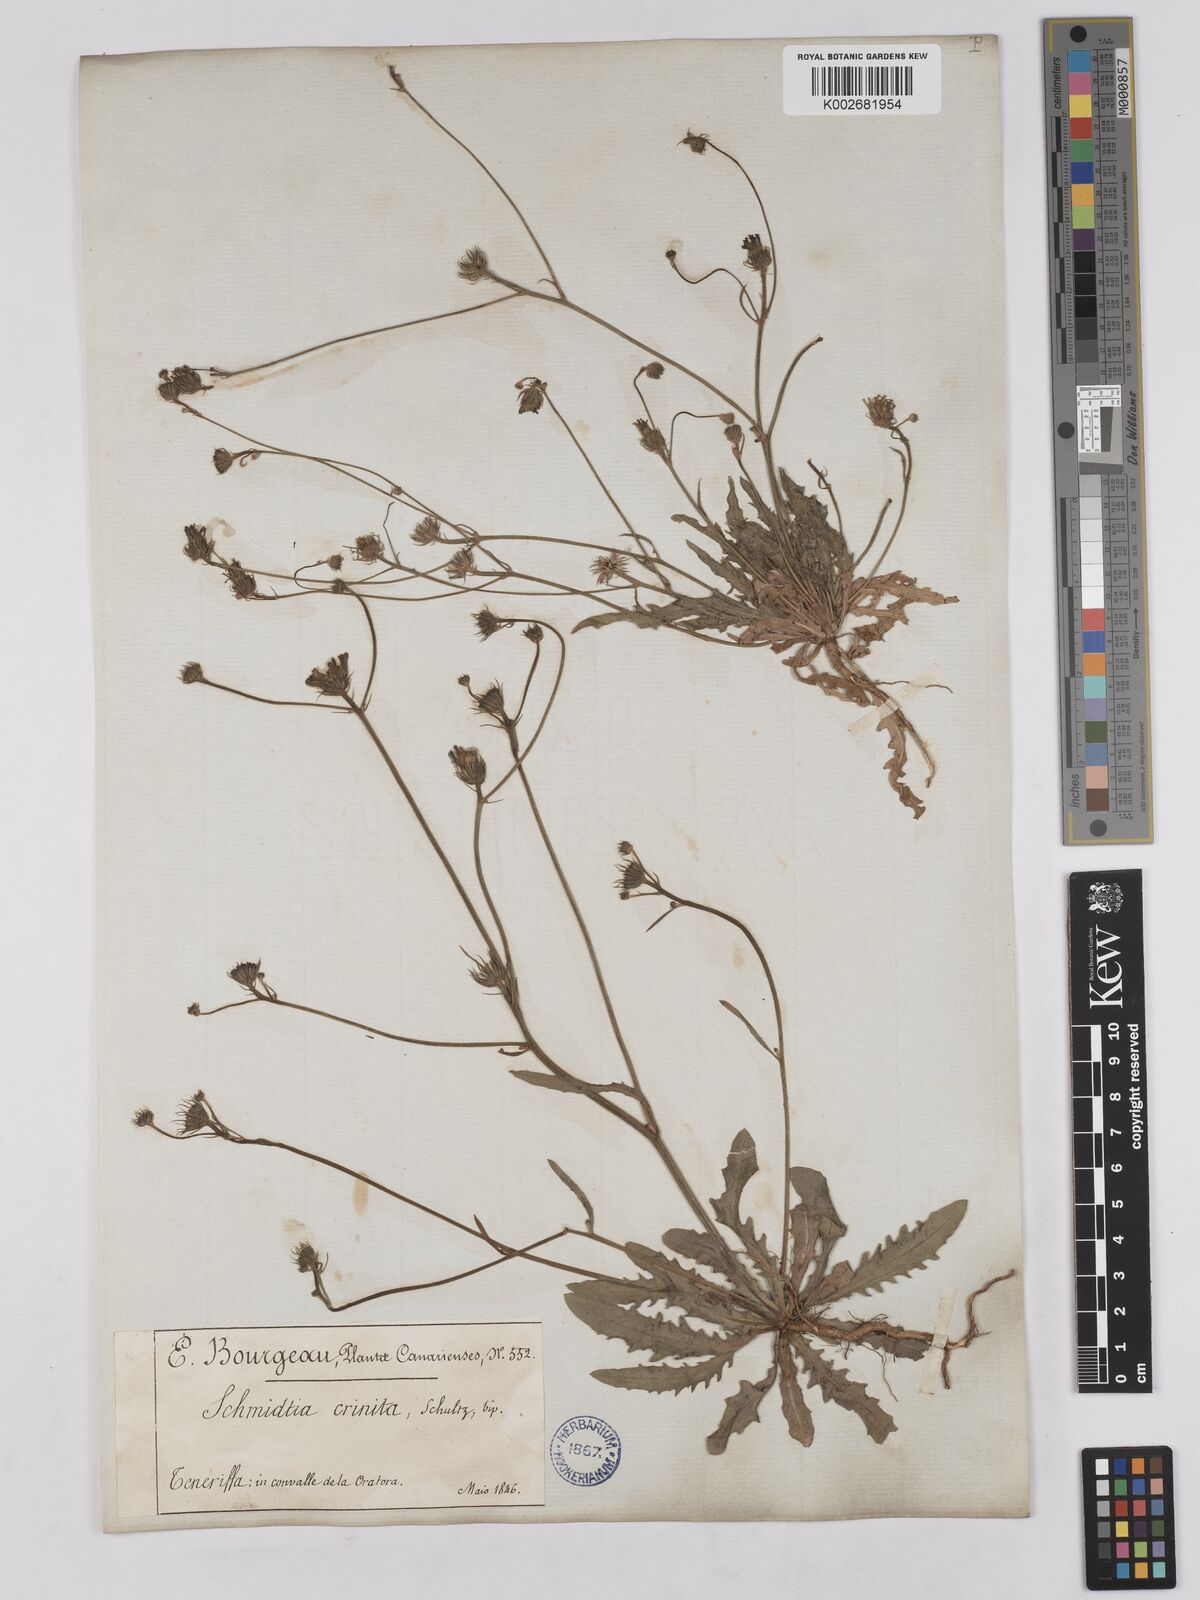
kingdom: Plantae
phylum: Tracheophyta
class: Magnoliopsida
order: Asterales
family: Asteraceae
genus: Tolpis
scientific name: Tolpis umbellata
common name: Yellow hawkweed
